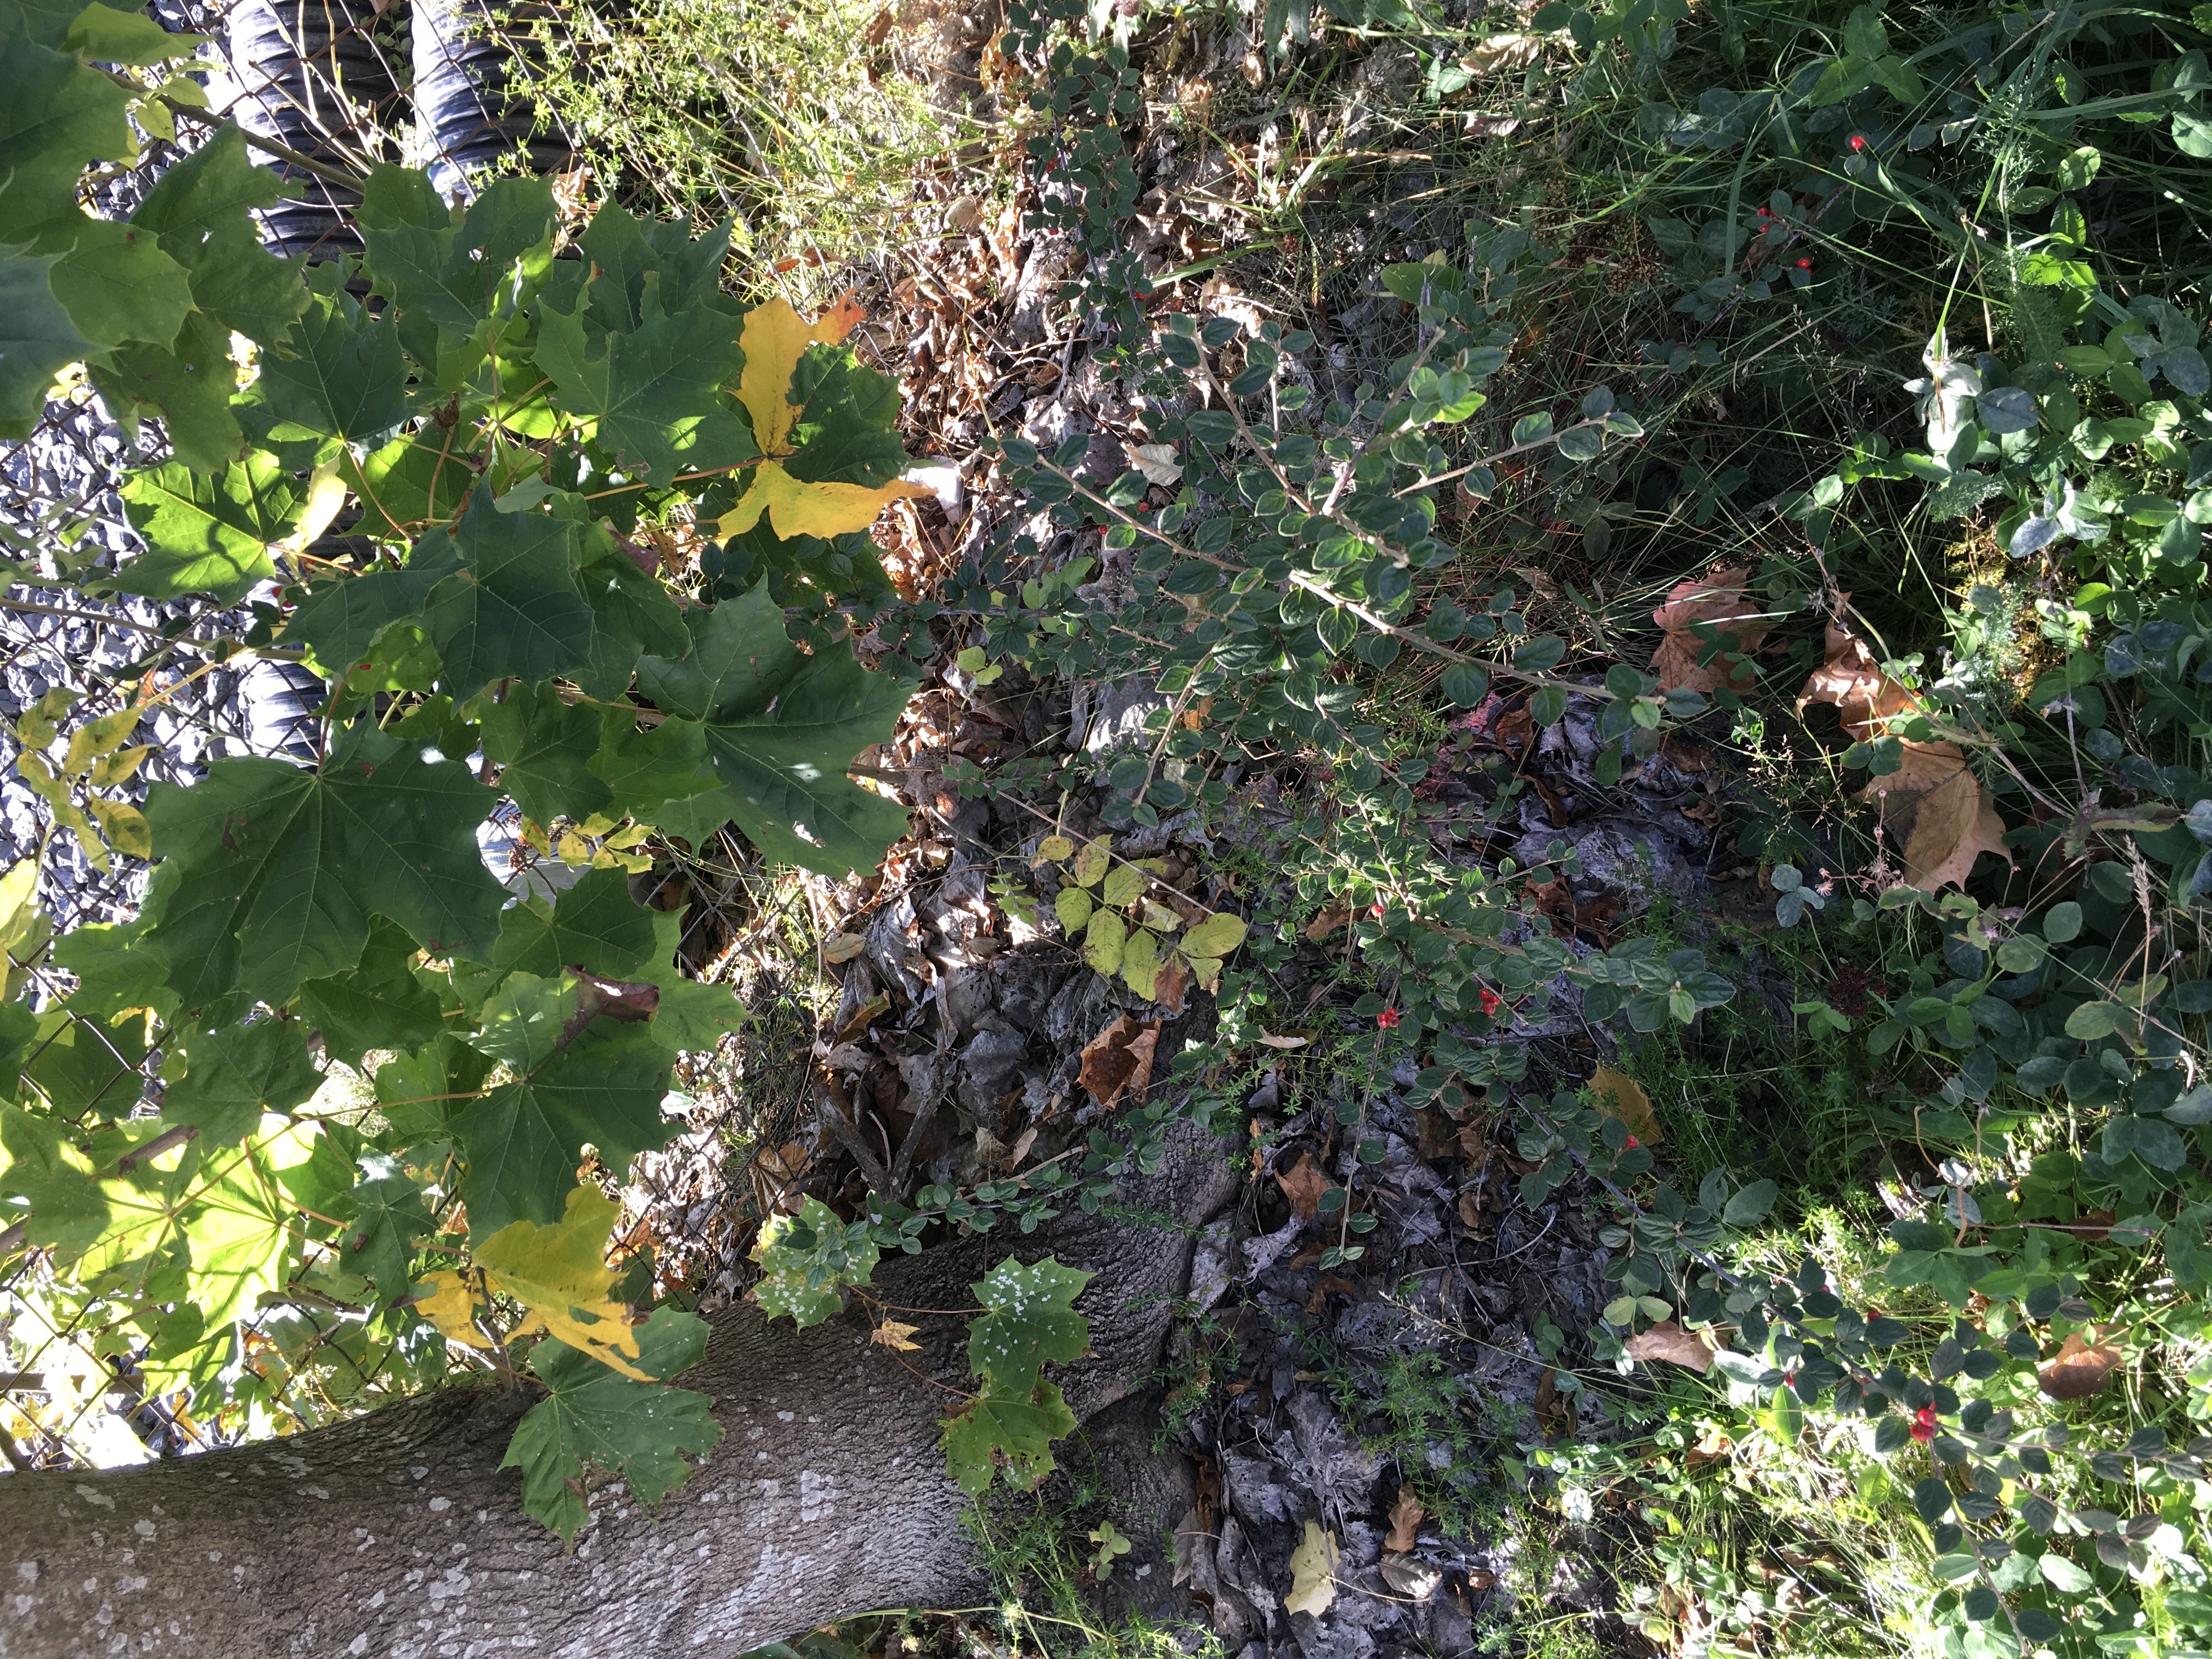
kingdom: Plantae
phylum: Tracheophyta
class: Magnoliopsida
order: Rosales
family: Rosaceae
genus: Cotoneaster
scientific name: Cotoneaster dielsianus
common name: dielsmispel
